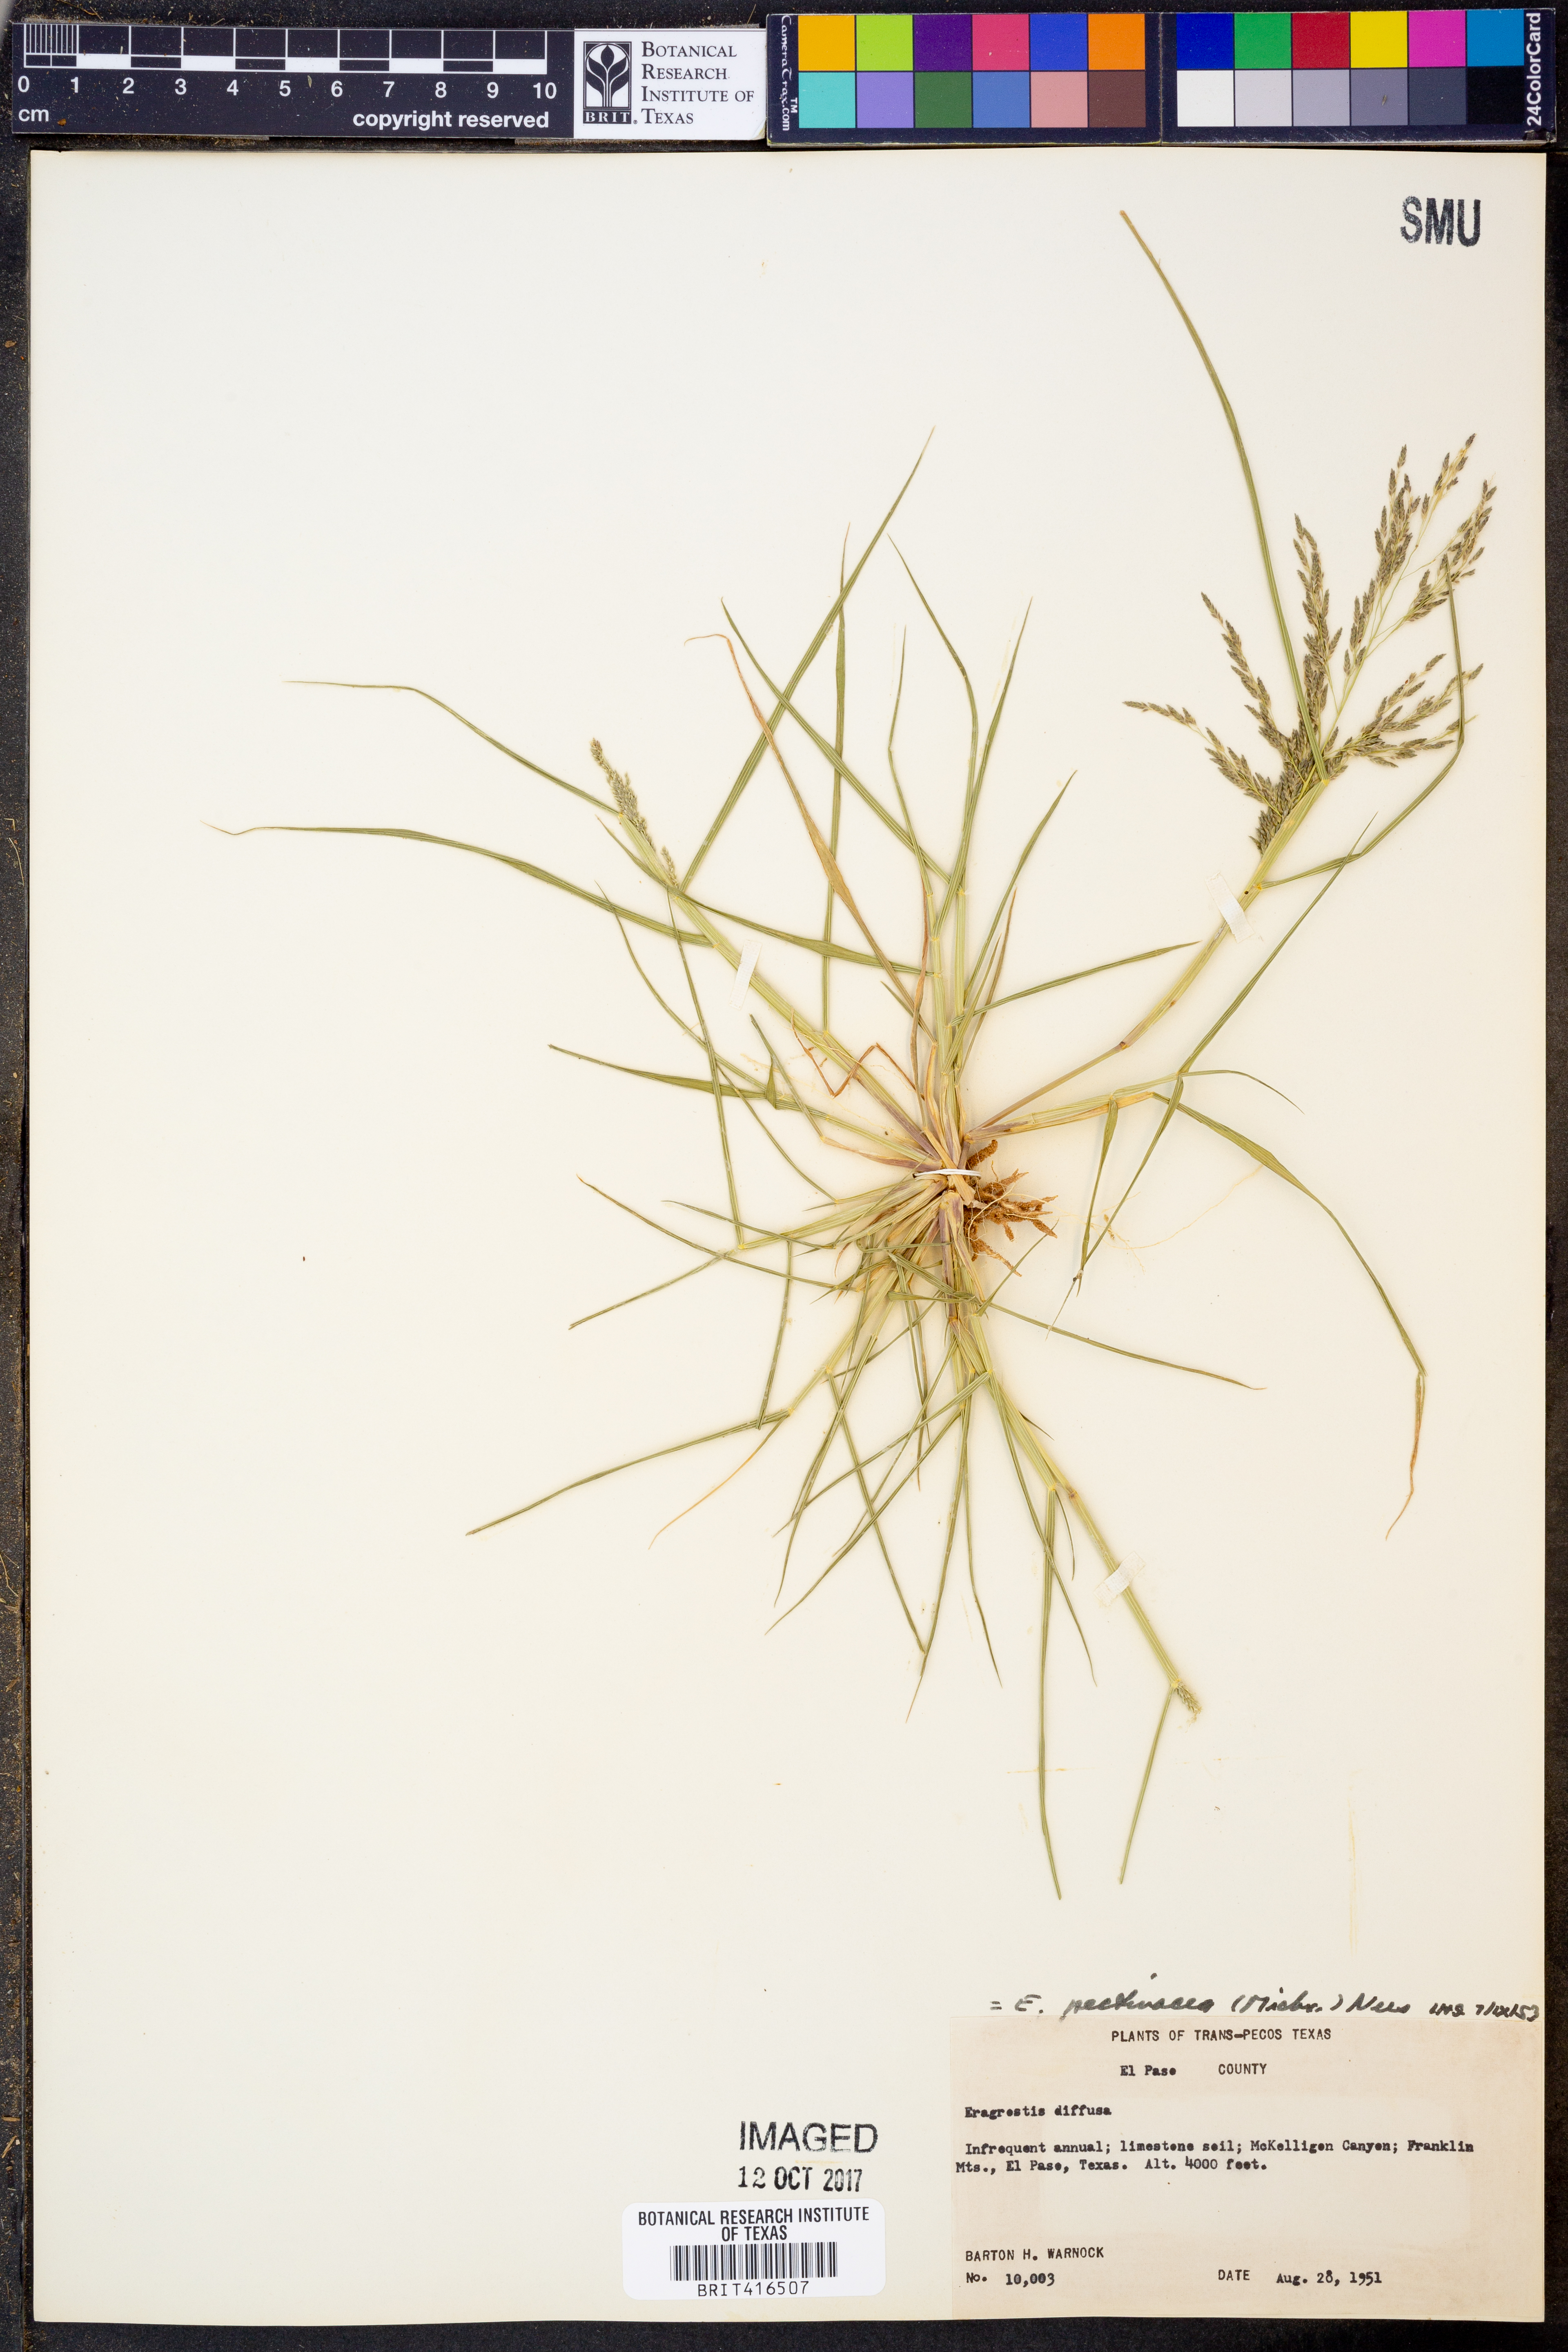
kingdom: Plantae
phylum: Tracheophyta
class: Liliopsida
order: Poales
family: Poaceae
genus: Eragrostis
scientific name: Eragrostis pectinacea
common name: Tufted lovegrass
